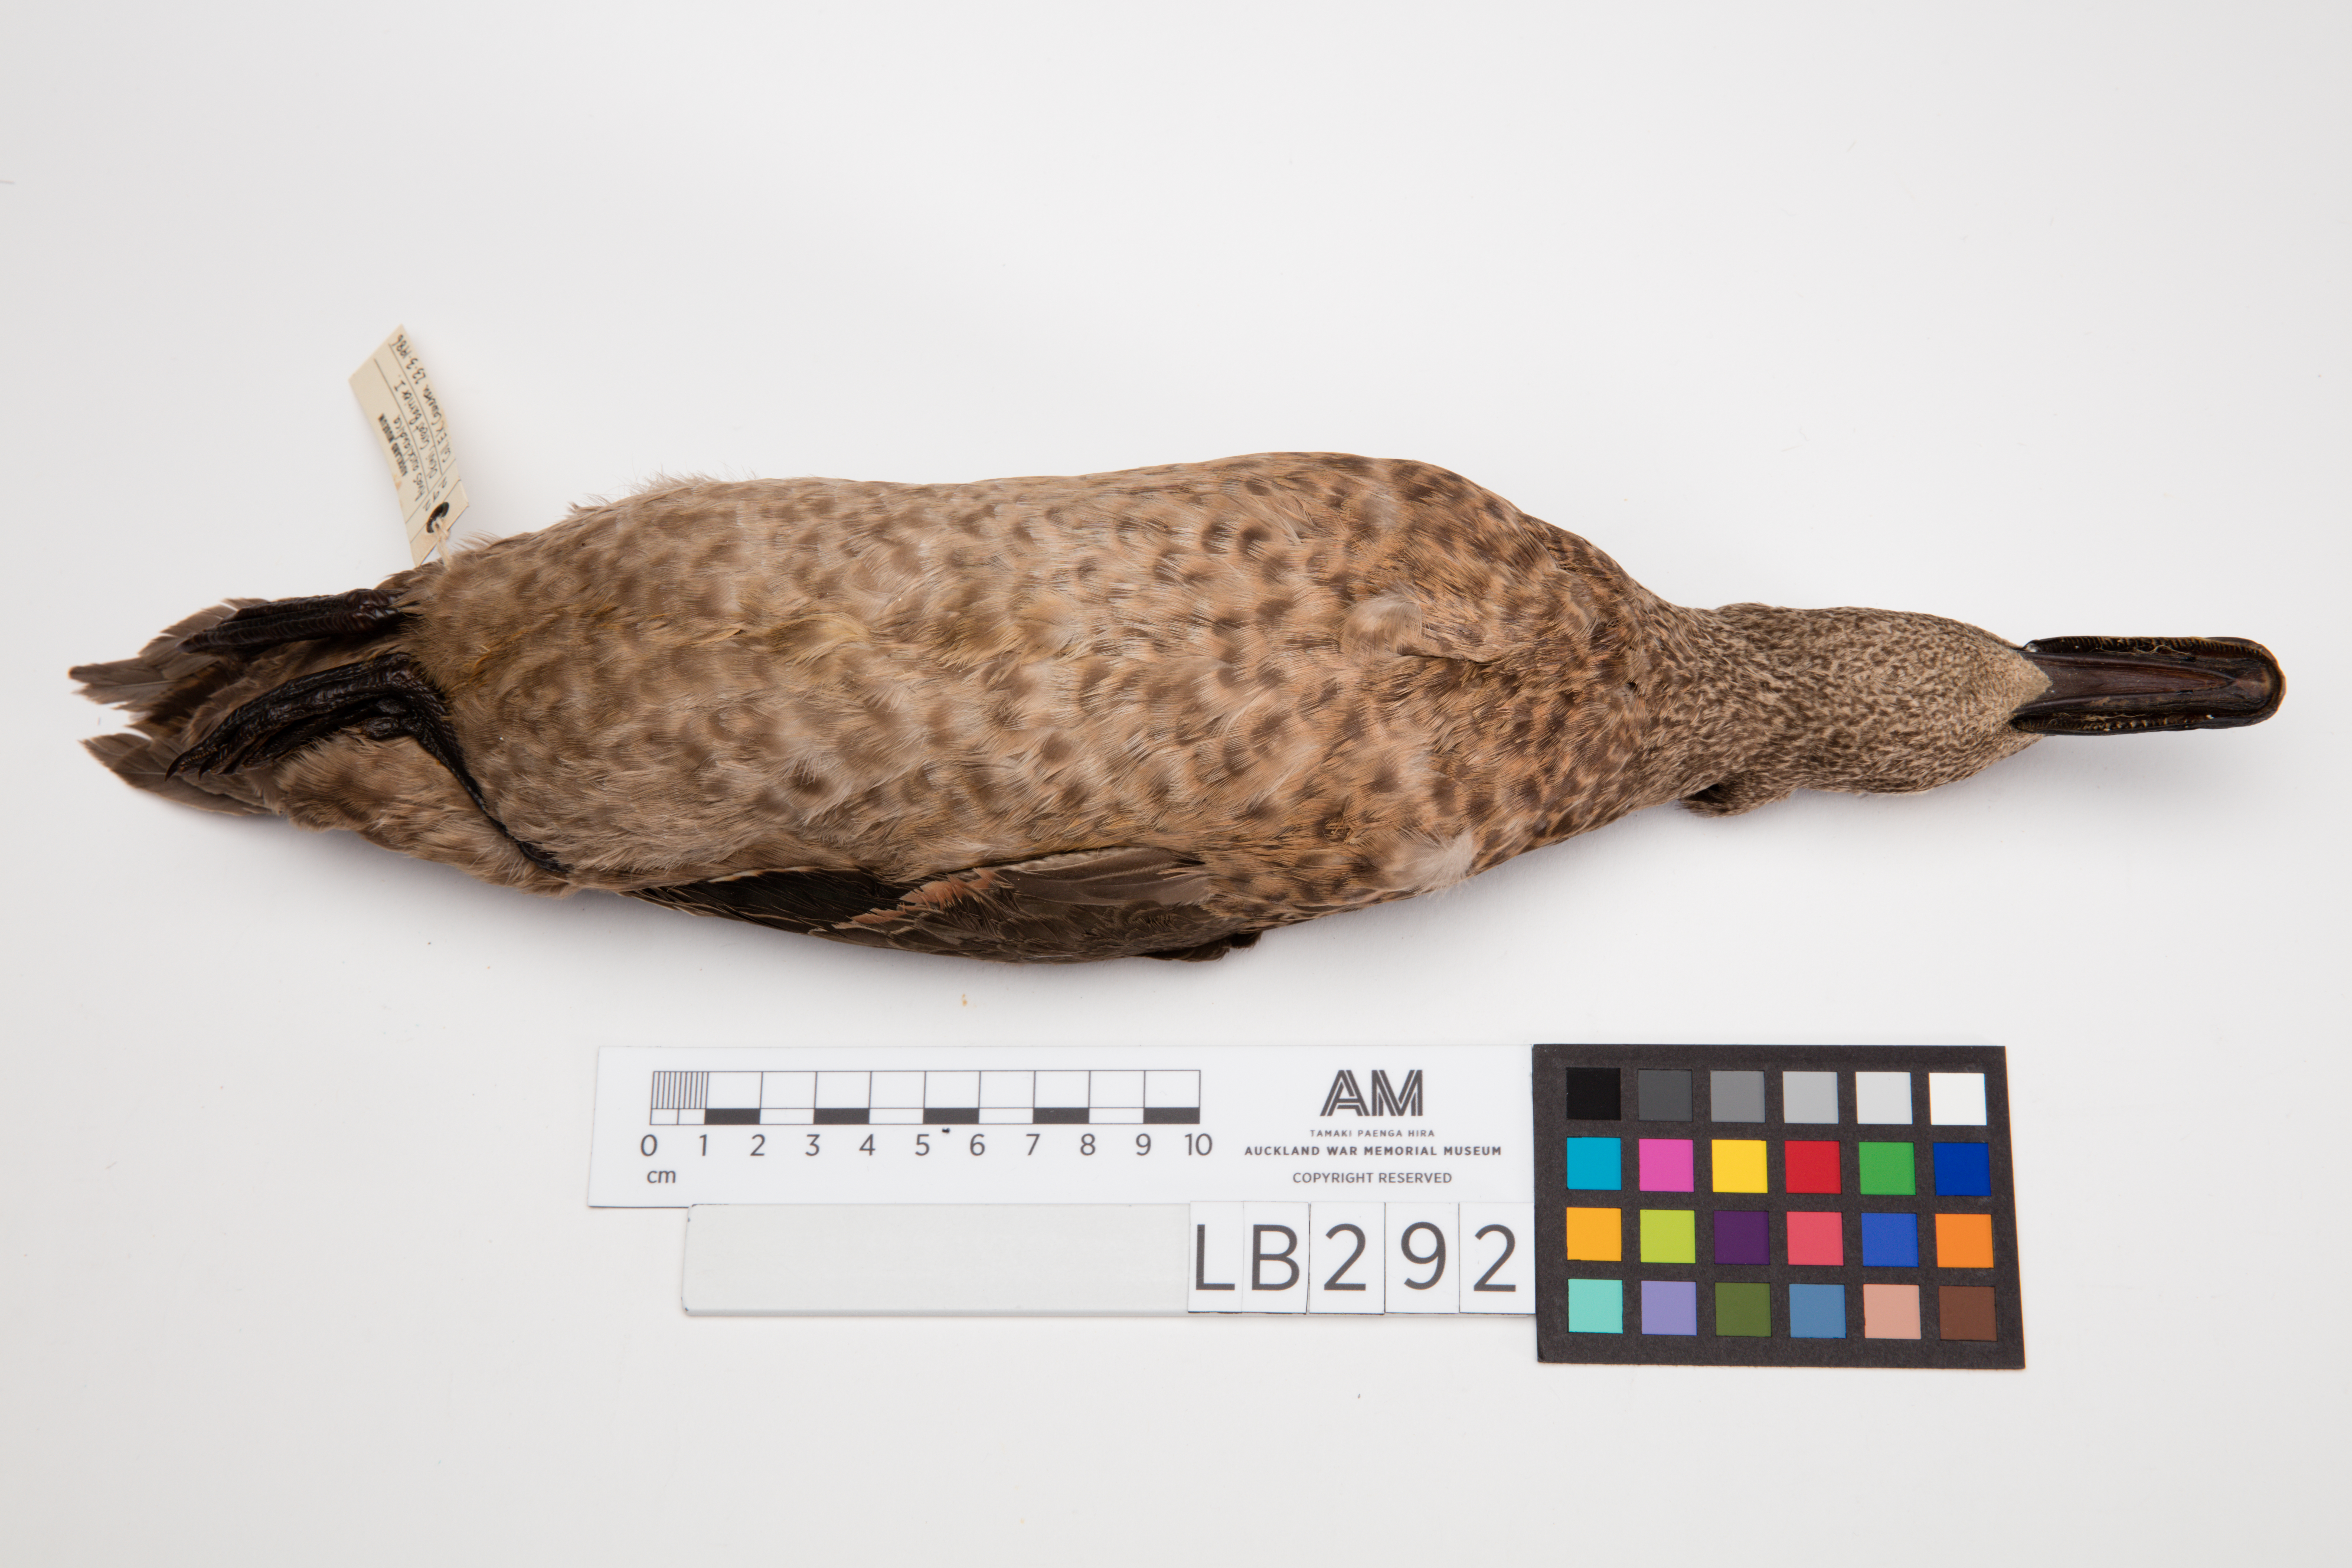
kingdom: Animalia
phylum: Chordata
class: Aves
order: Anseriformes
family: Anatidae
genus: Anas
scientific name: Anas chlorotis
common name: Brown teal
